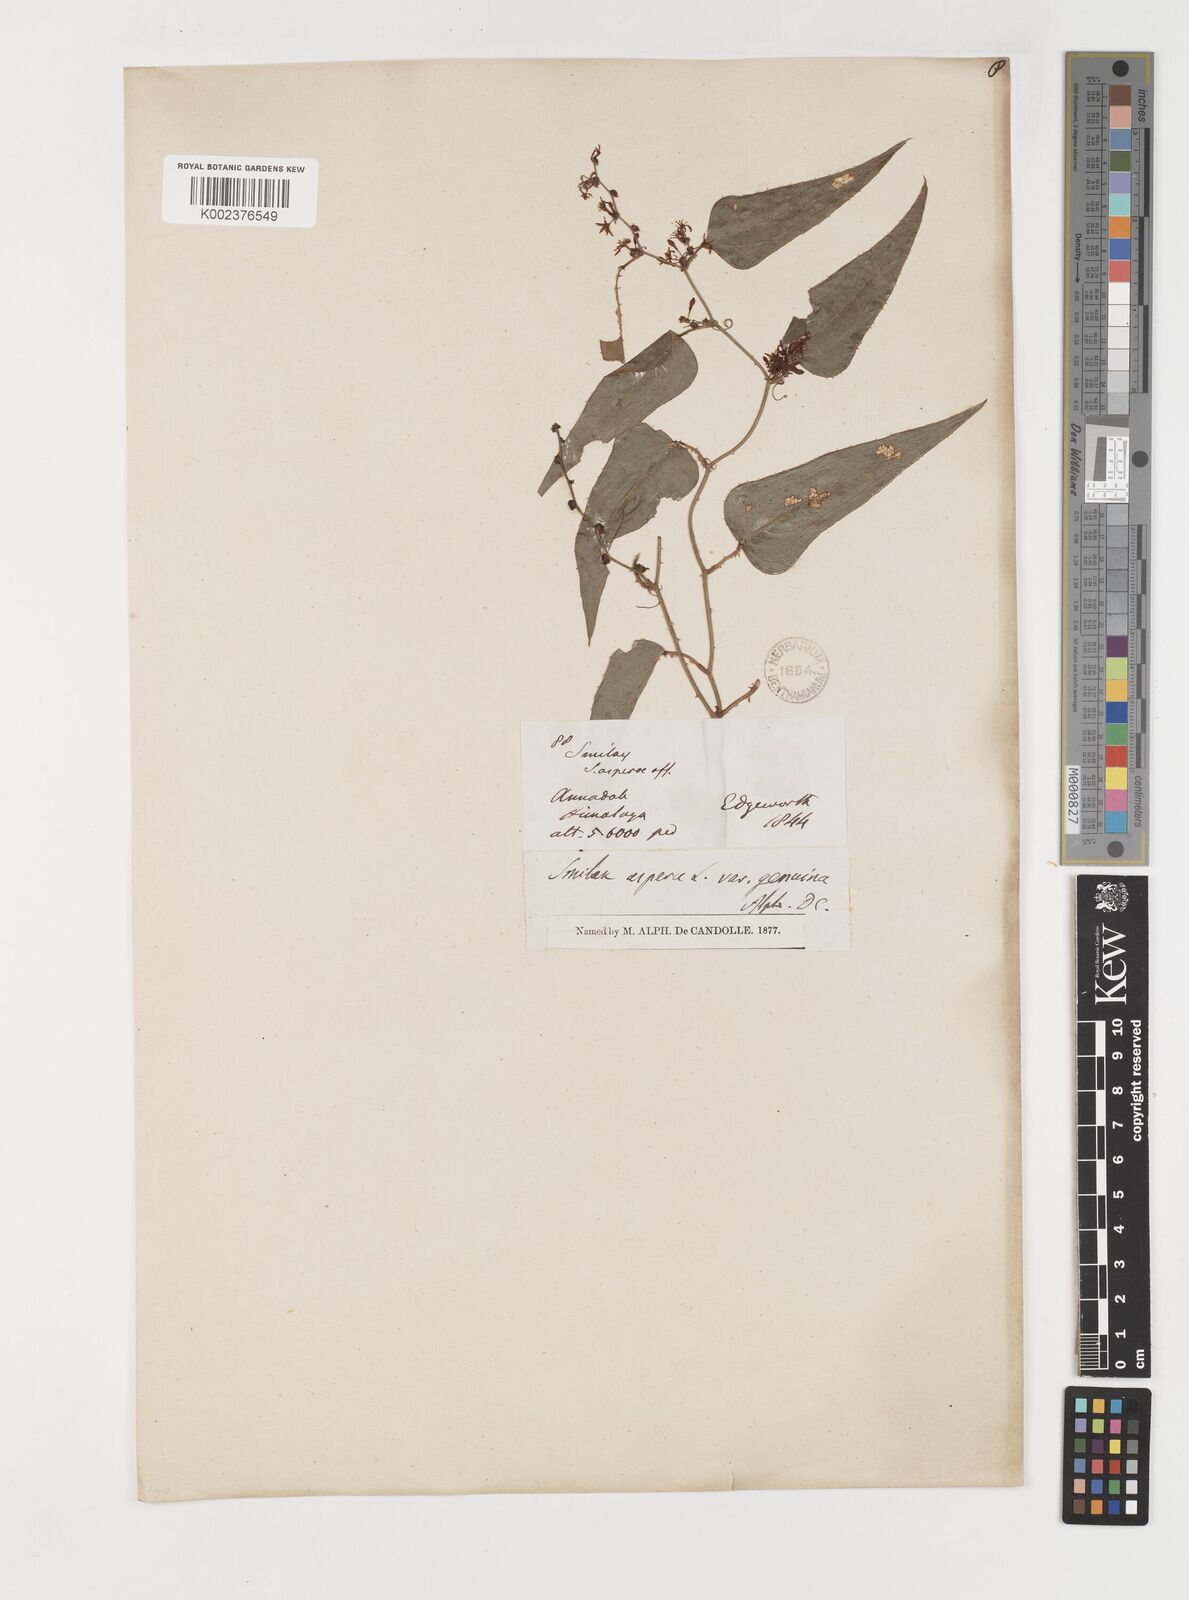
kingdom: Plantae
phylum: Tracheophyta
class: Liliopsida
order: Liliales
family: Smilacaceae
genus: Smilax
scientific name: Smilax aspera
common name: Common smilax
